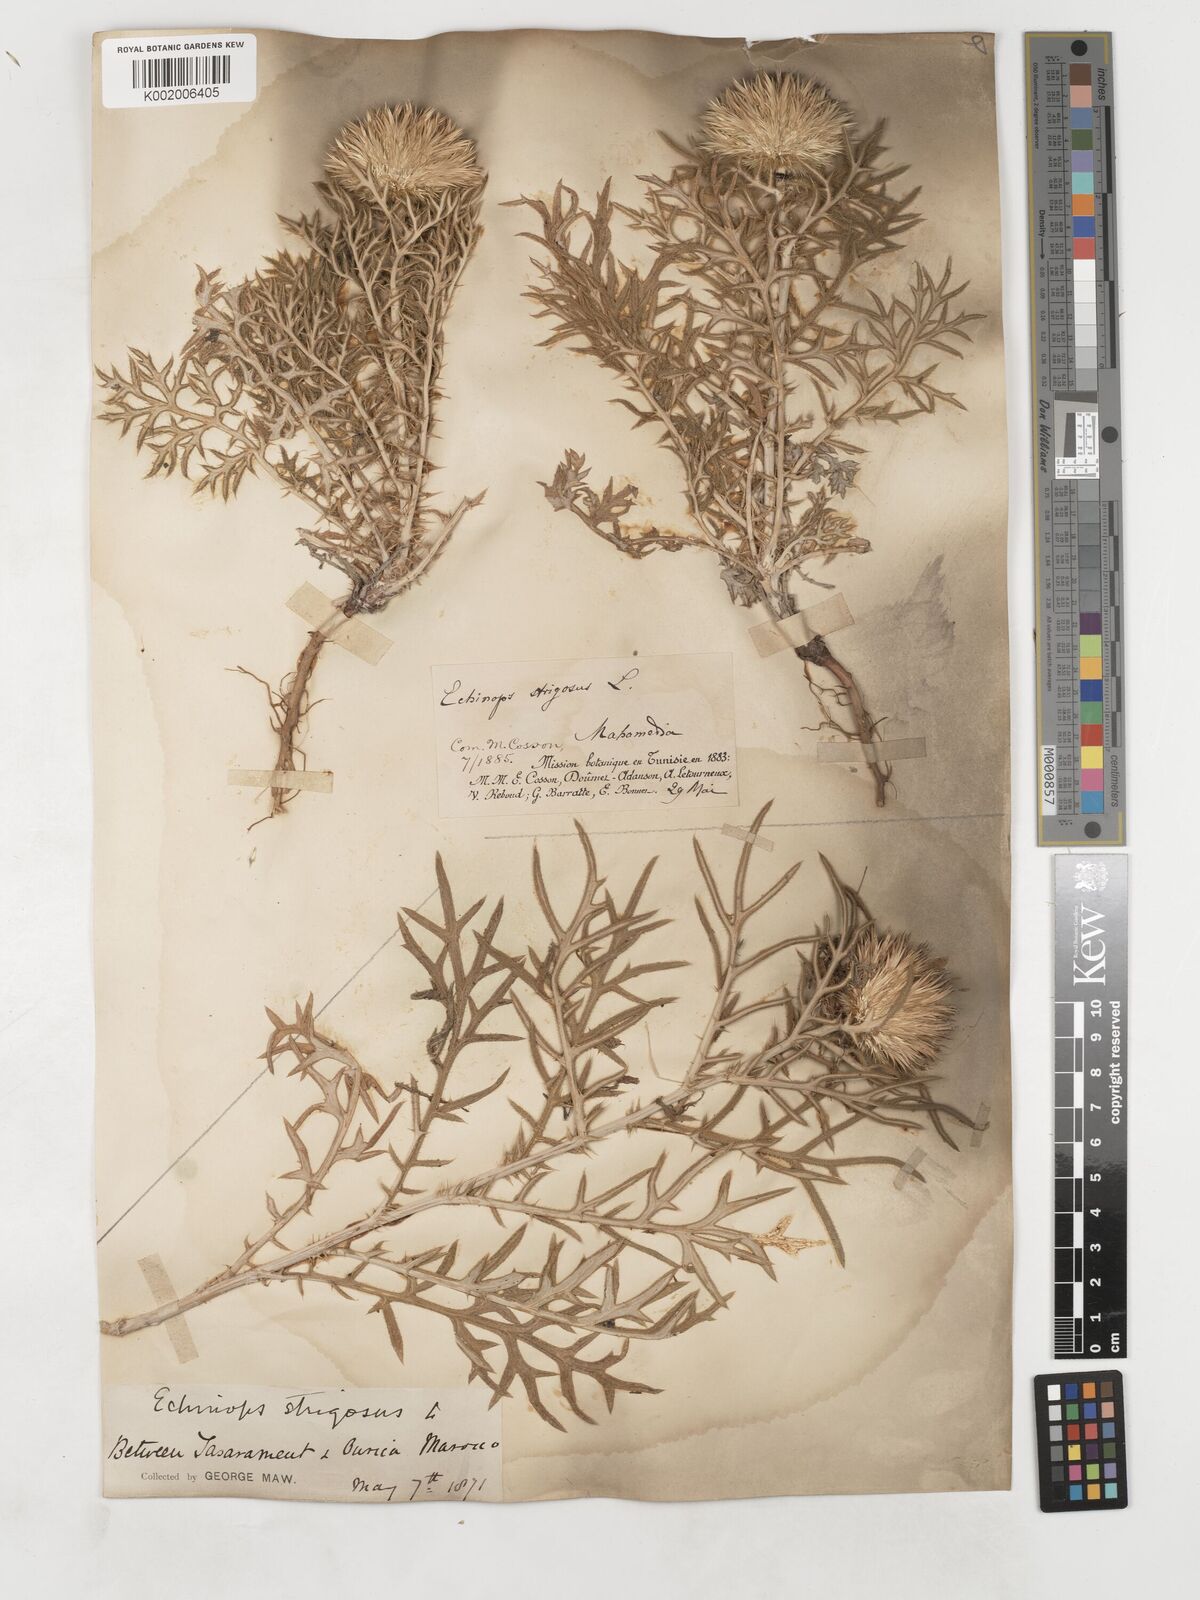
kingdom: Plantae
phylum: Tracheophyta
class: Magnoliopsida
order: Asterales
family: Asteraceae
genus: Echinops
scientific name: Echinops strigosus
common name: Rough-leaf globe thistle
